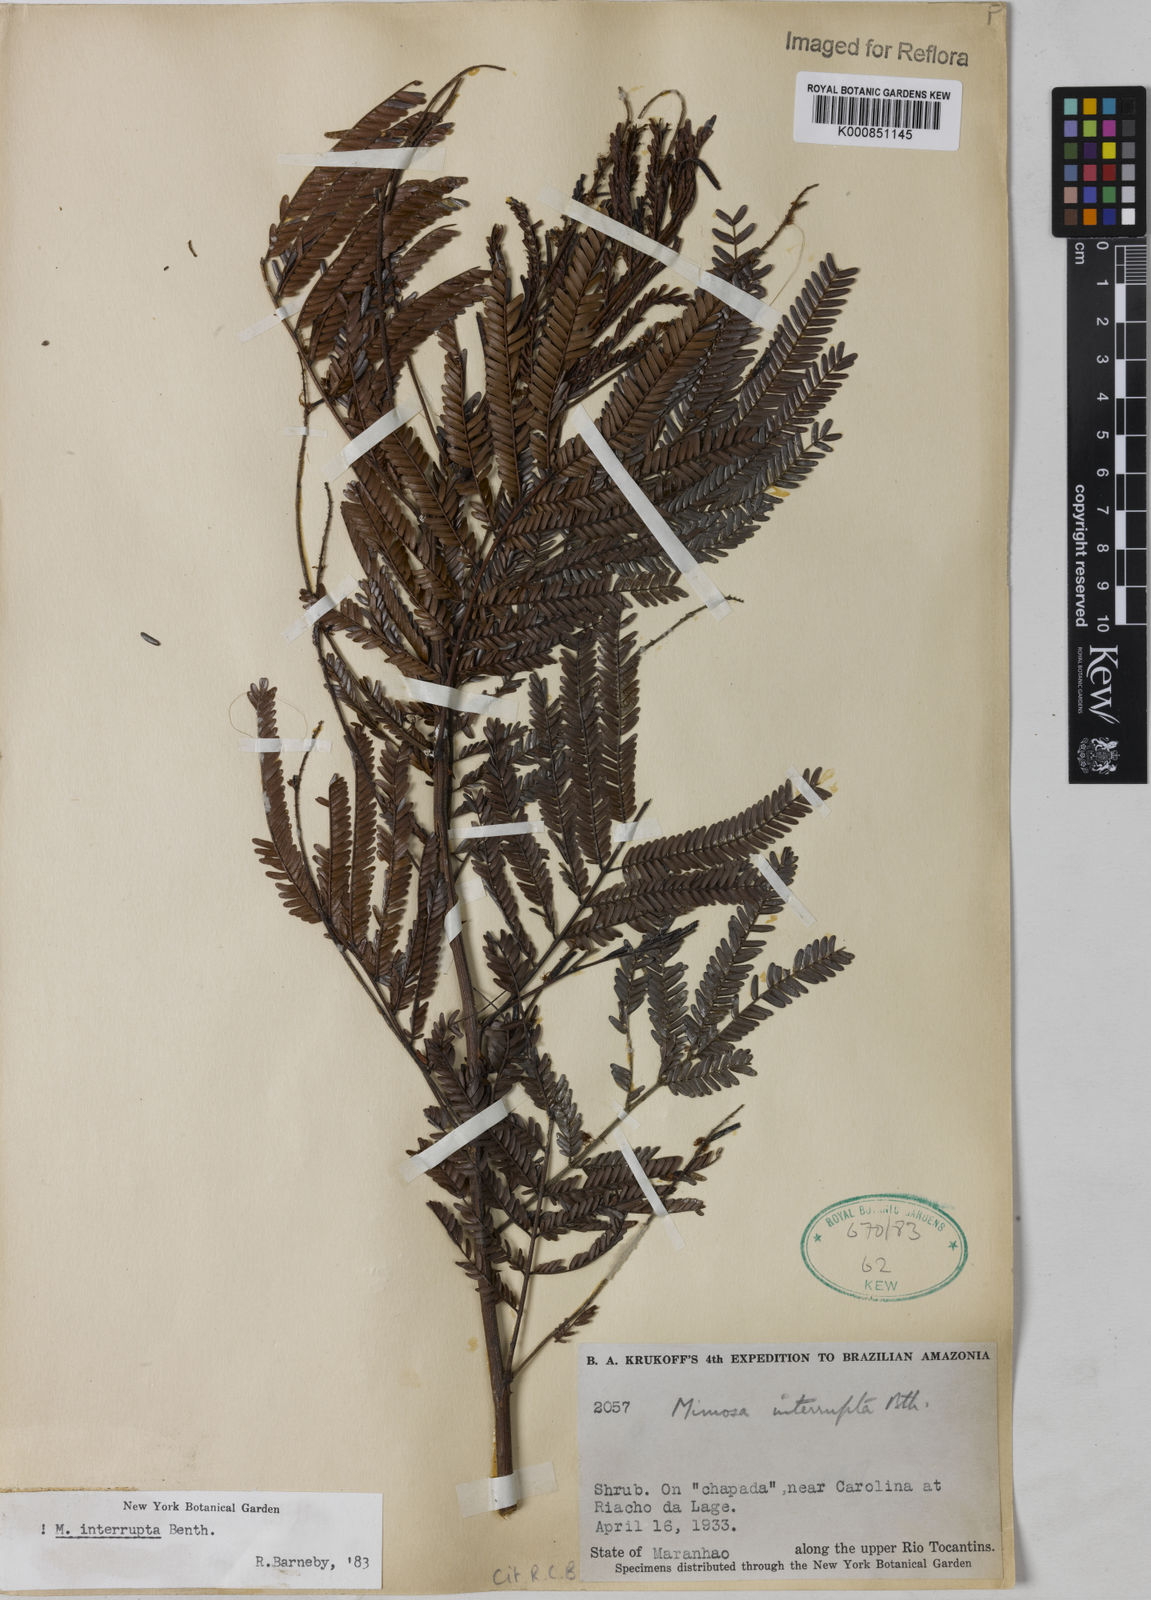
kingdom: Plantae
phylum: Tracheophyta
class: Magnoliopsida
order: Fabales
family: Fabaceae
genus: Mimosa
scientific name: Mimosa interrupta
